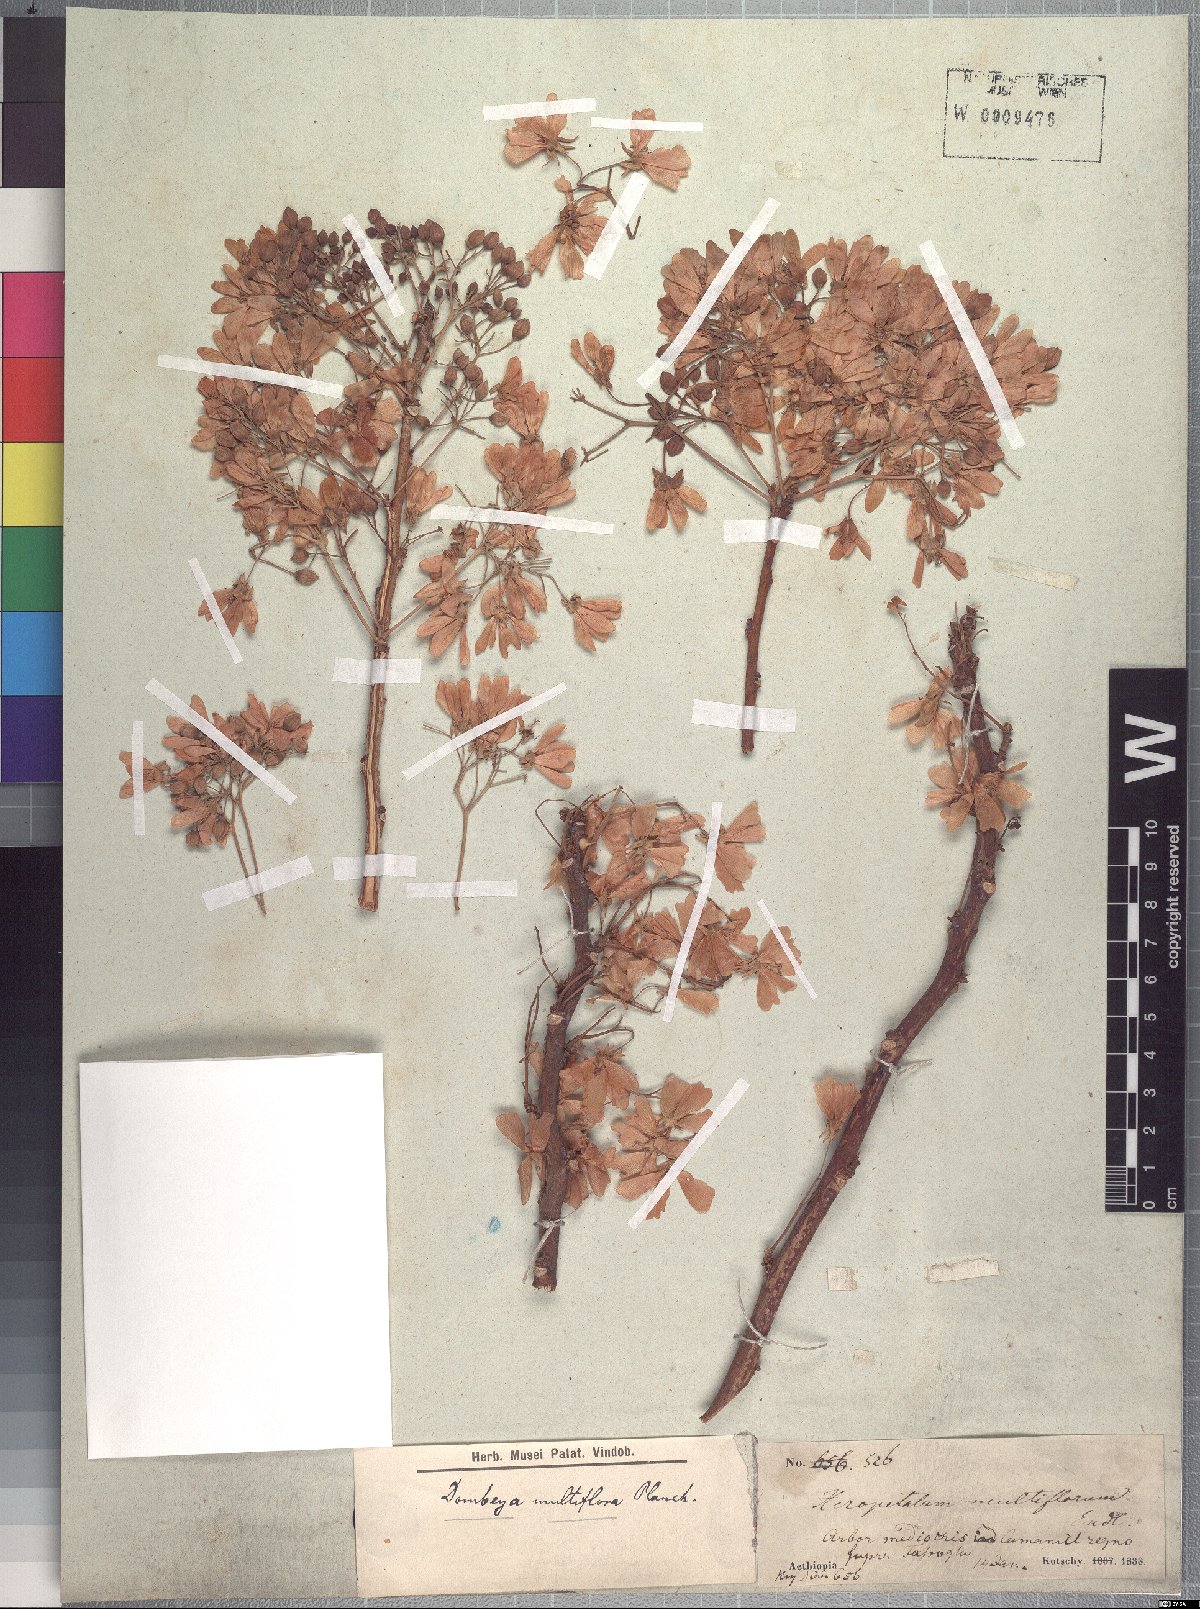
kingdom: Plantae
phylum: Tracheophyta
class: Magnoliopsida
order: Malvales
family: Malvaceae
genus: Dombeya
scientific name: Dombeya quinqueseta
